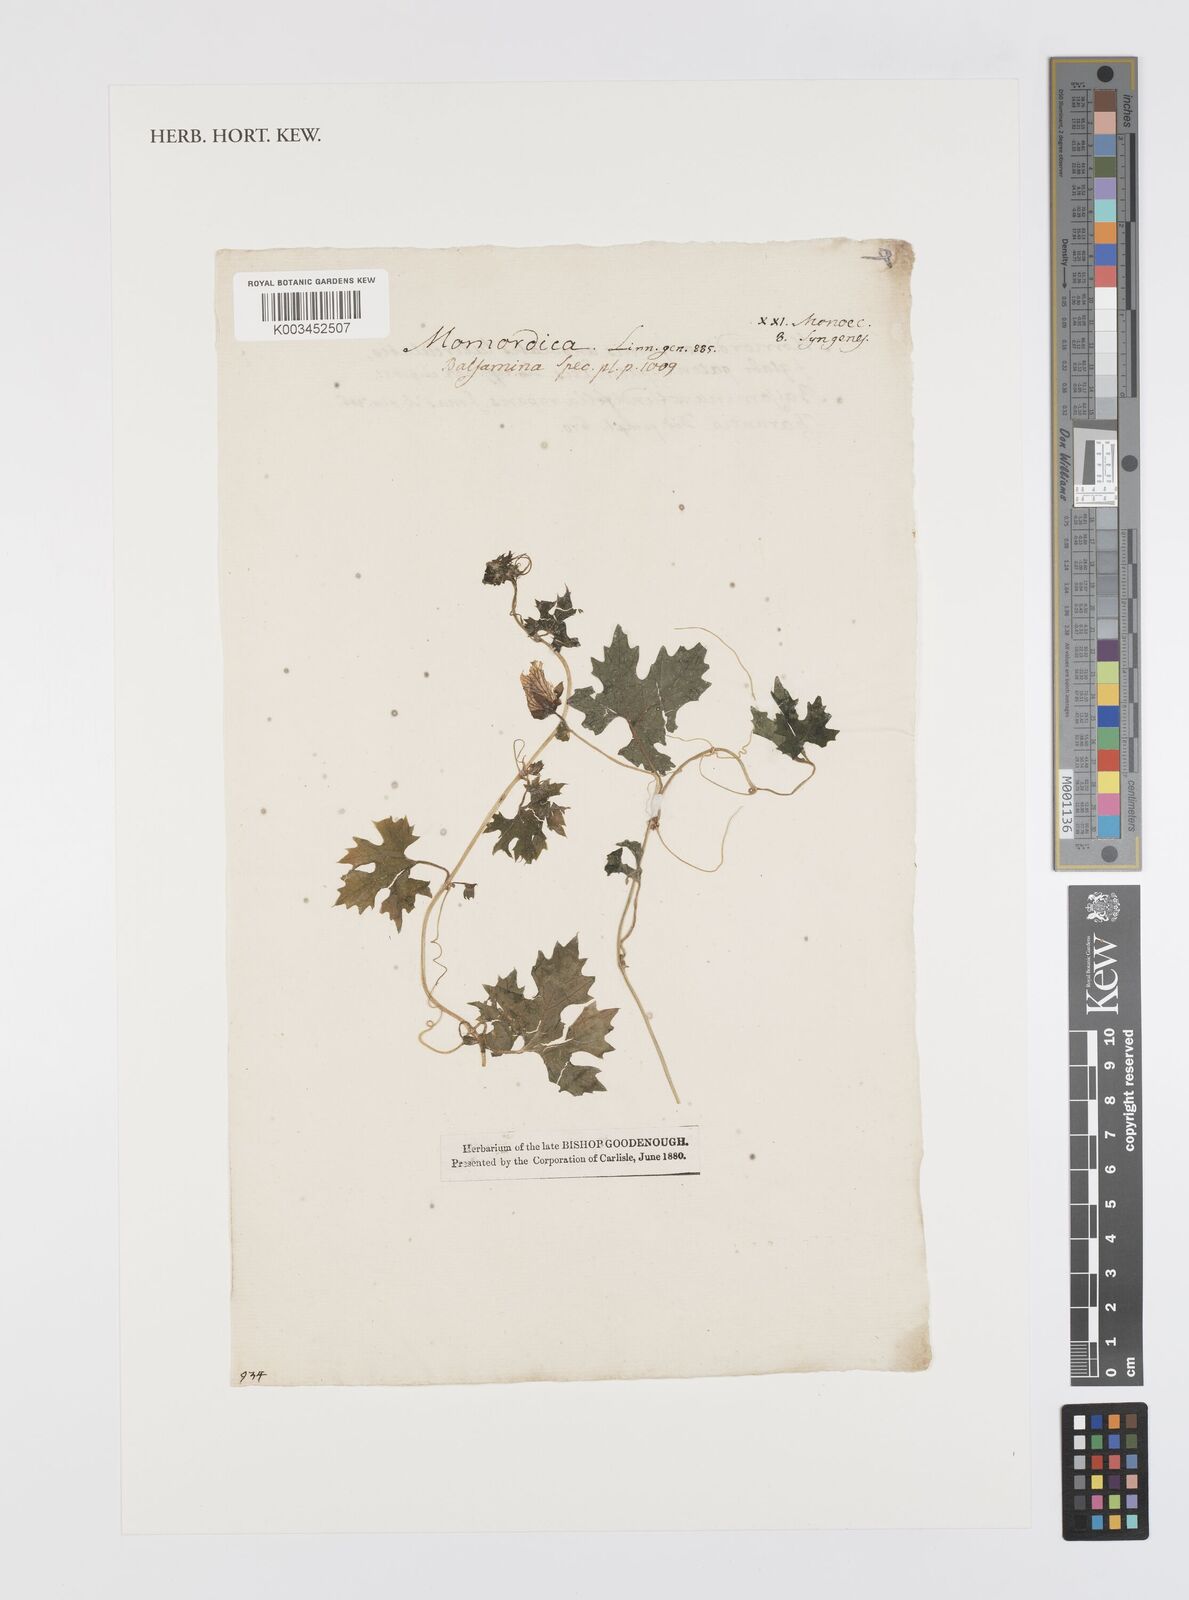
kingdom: Plantae
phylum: Tracheophyta
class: Magnoliopsida
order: Cucurbitales
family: Cucurbitaceae
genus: Momordica
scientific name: Momordica balsamina
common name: Southern balsampear
